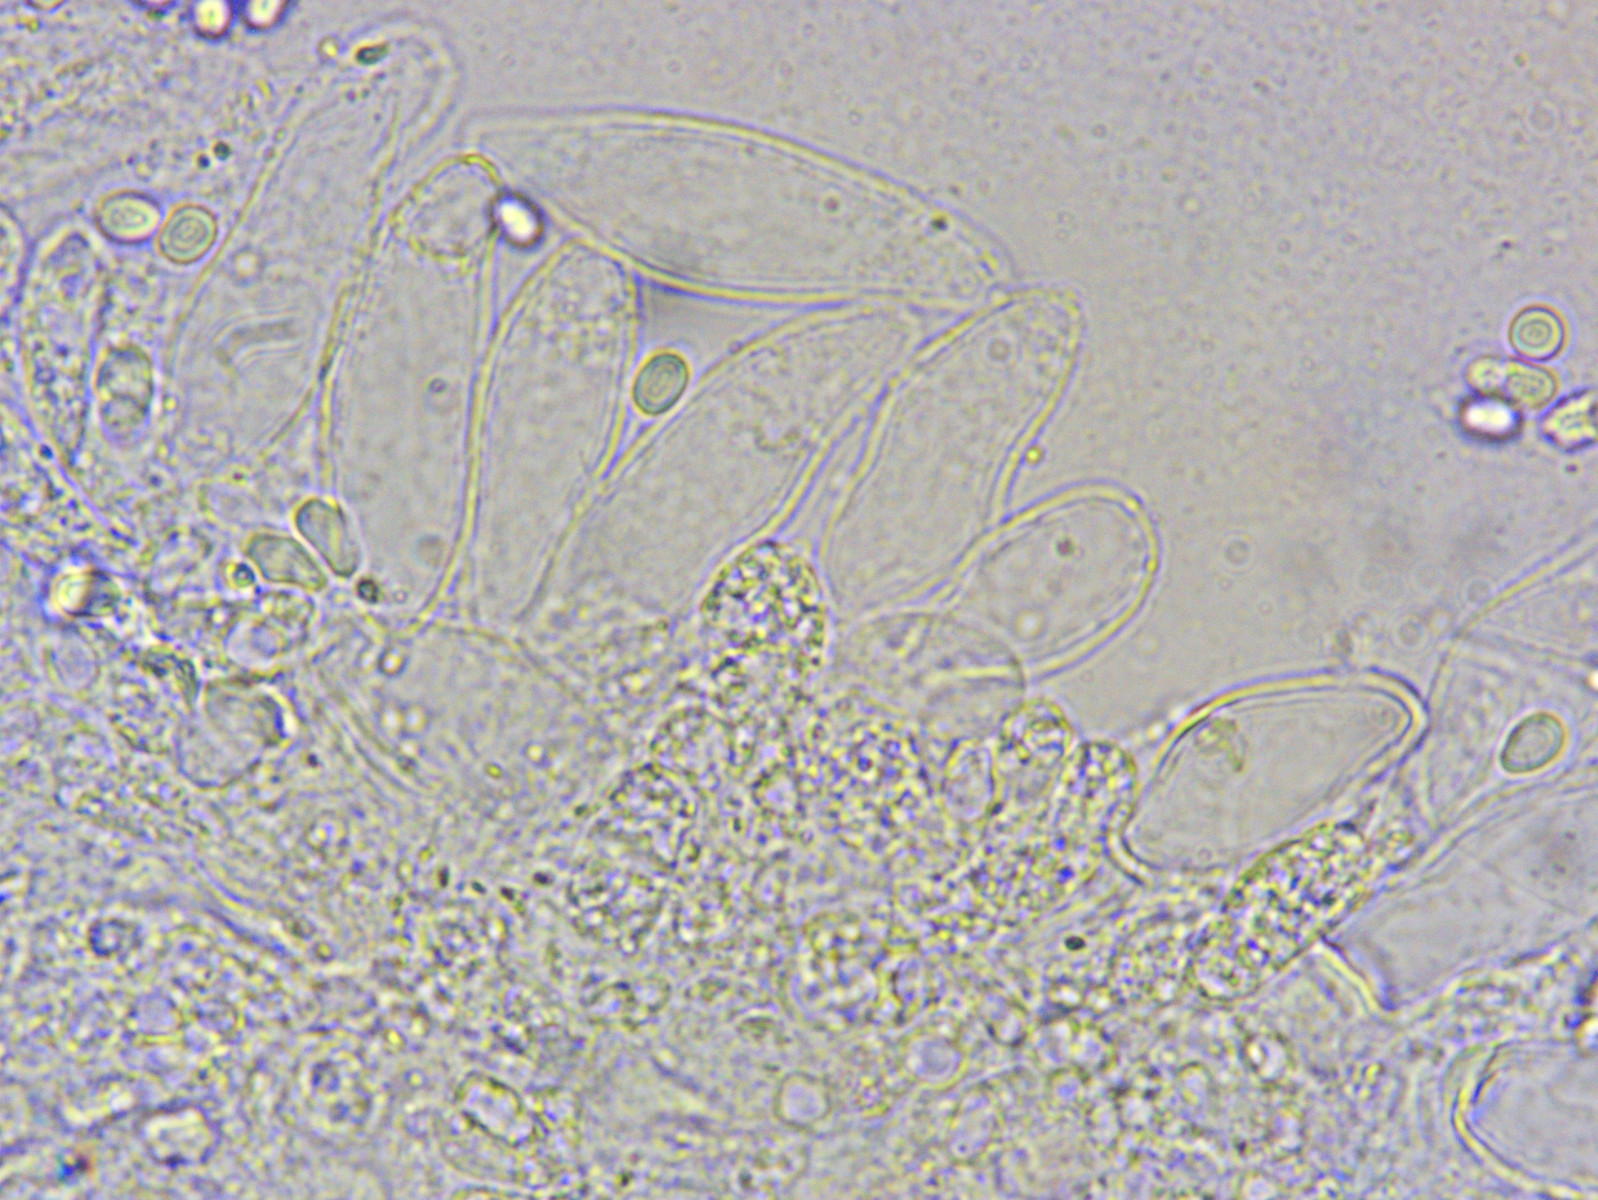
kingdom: Fungi
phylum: Basidiomycota
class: Agaricomycetes
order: Agaricales
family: Mycenaceae
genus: Mycena
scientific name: Mycena leptocephala
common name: klor-huesvamp
